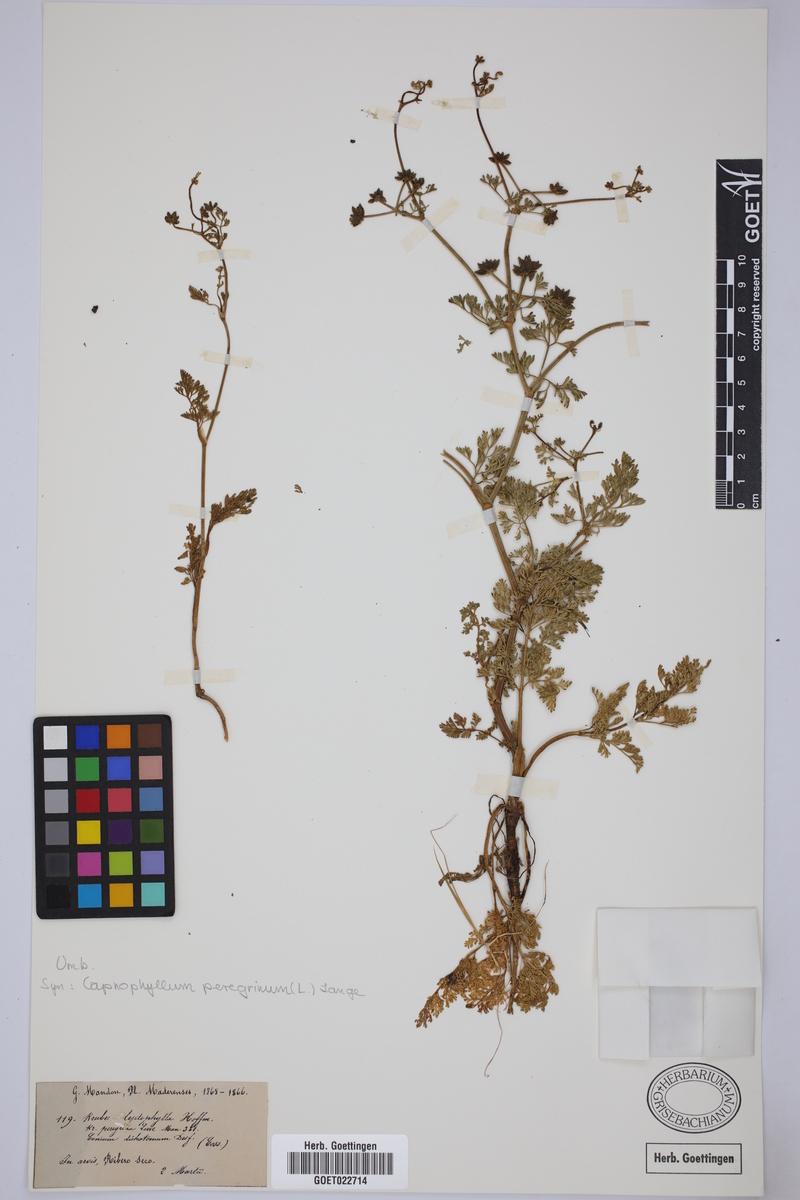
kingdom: Plantae
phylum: Tracheophyta
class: Magnoliopsida
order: Apiales
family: Apiaceae
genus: Krubera
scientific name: Krubera peregrina
